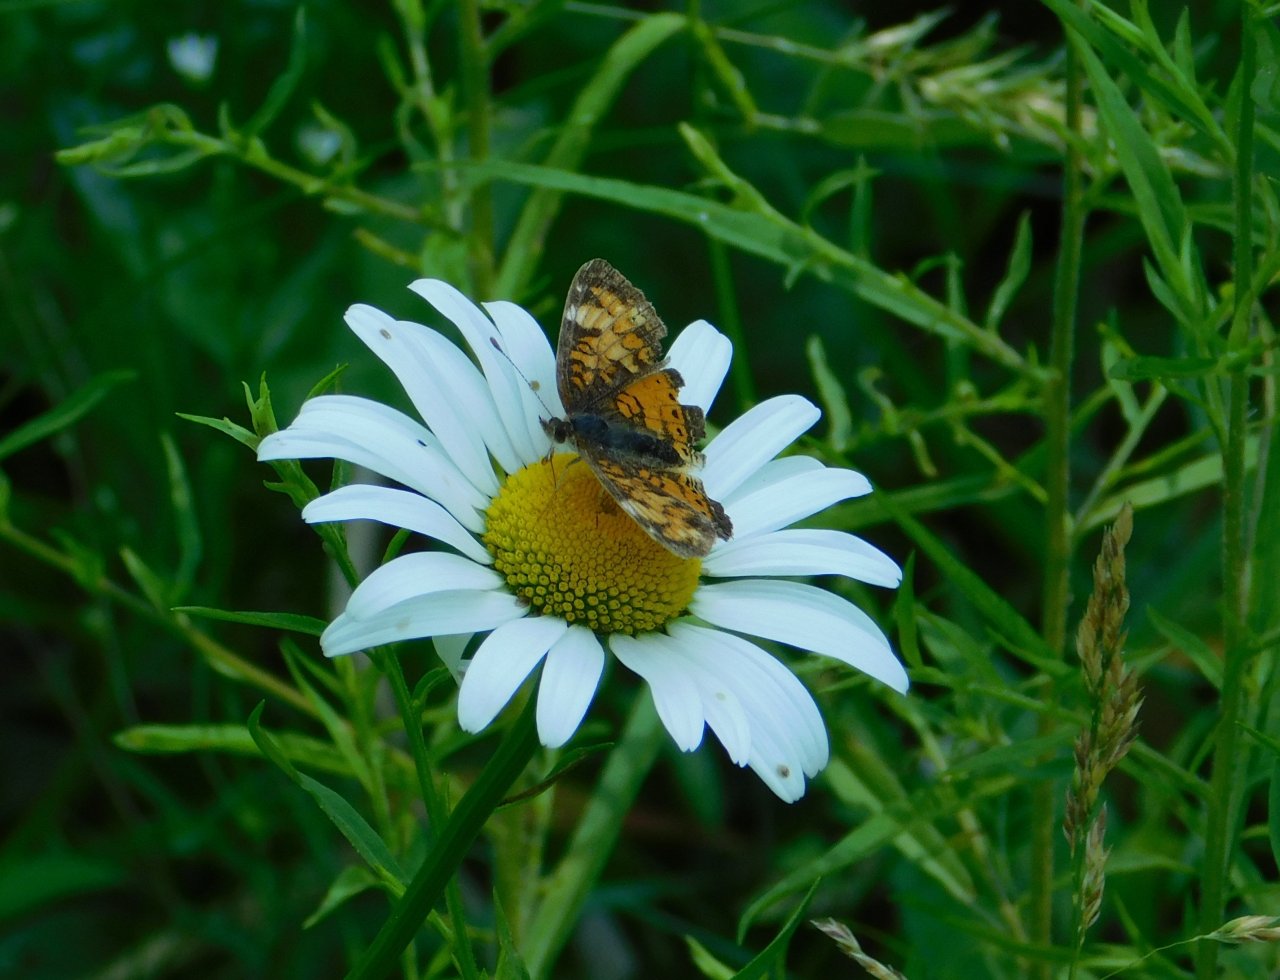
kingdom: Animalia
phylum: Arthropoda
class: Insecta
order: Lepidoptera
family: Nymphalidae
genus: Phyciodes
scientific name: Phyciodes tharos
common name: Northern Crescent
